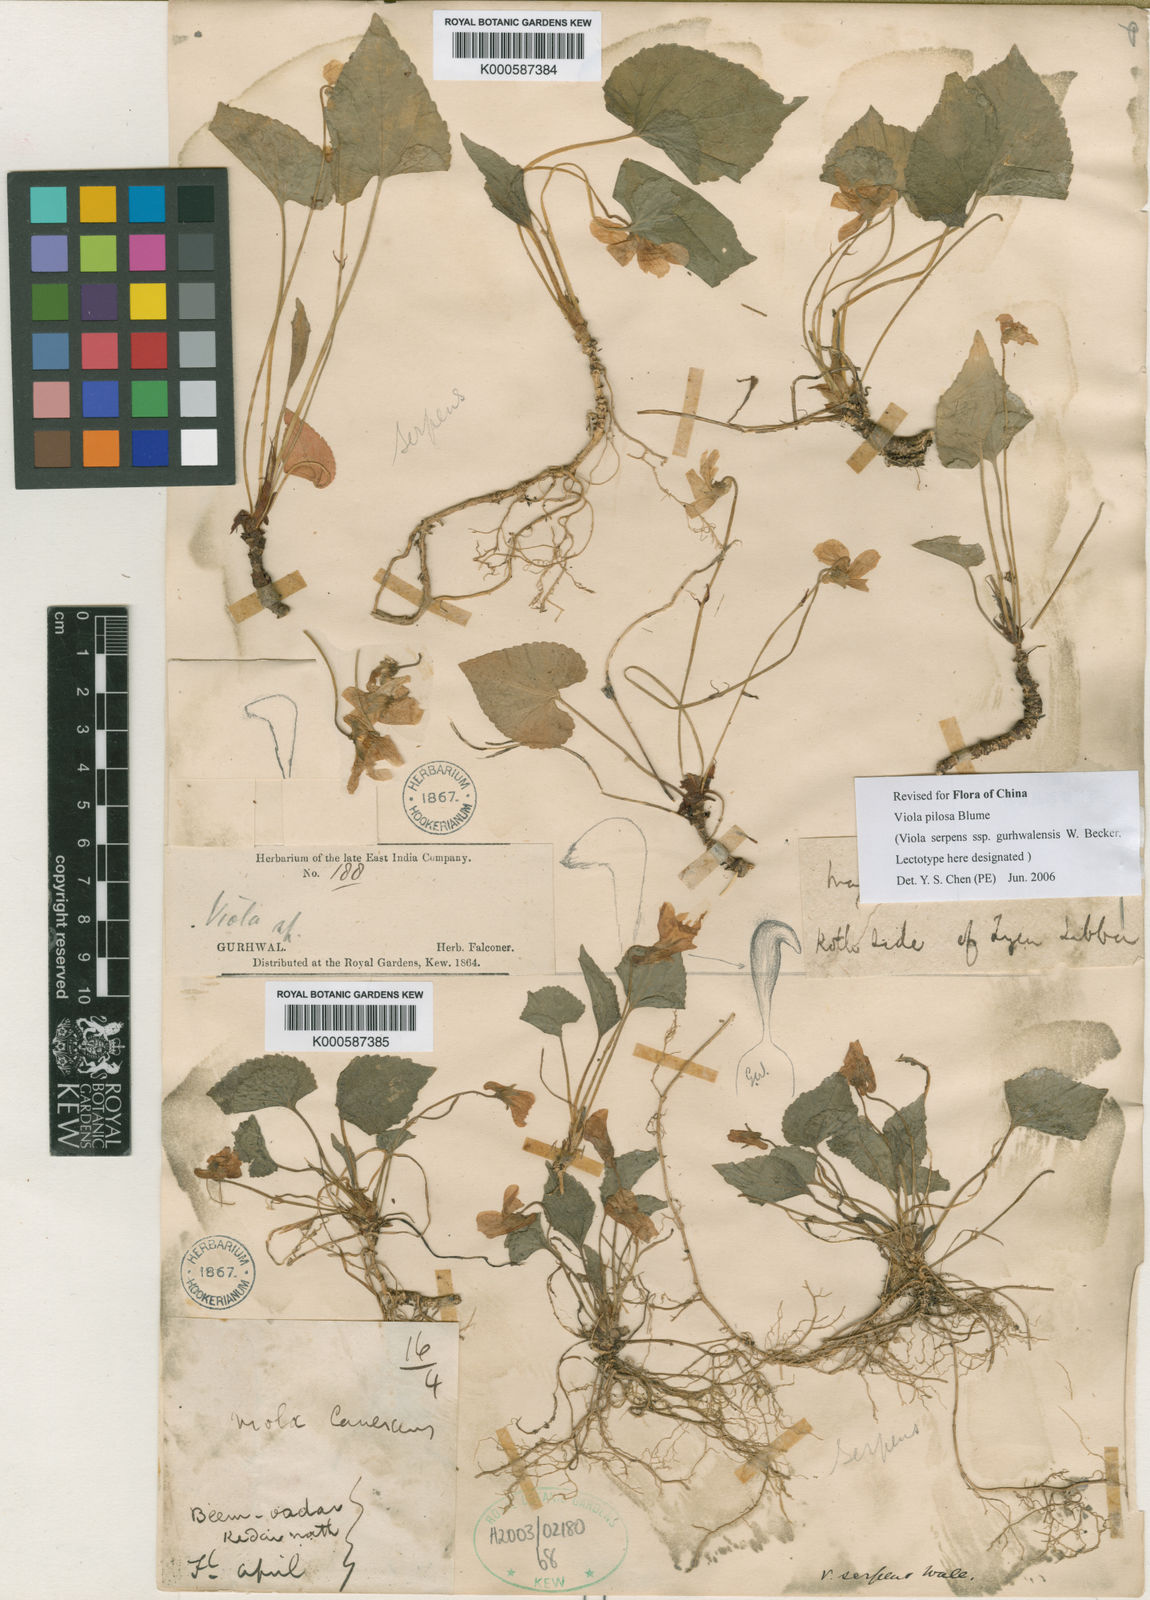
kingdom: Plantae
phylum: Tracheophyta
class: Magnoliopsida
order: Malpighiales
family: Violaceae
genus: Viola
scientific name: Viola
